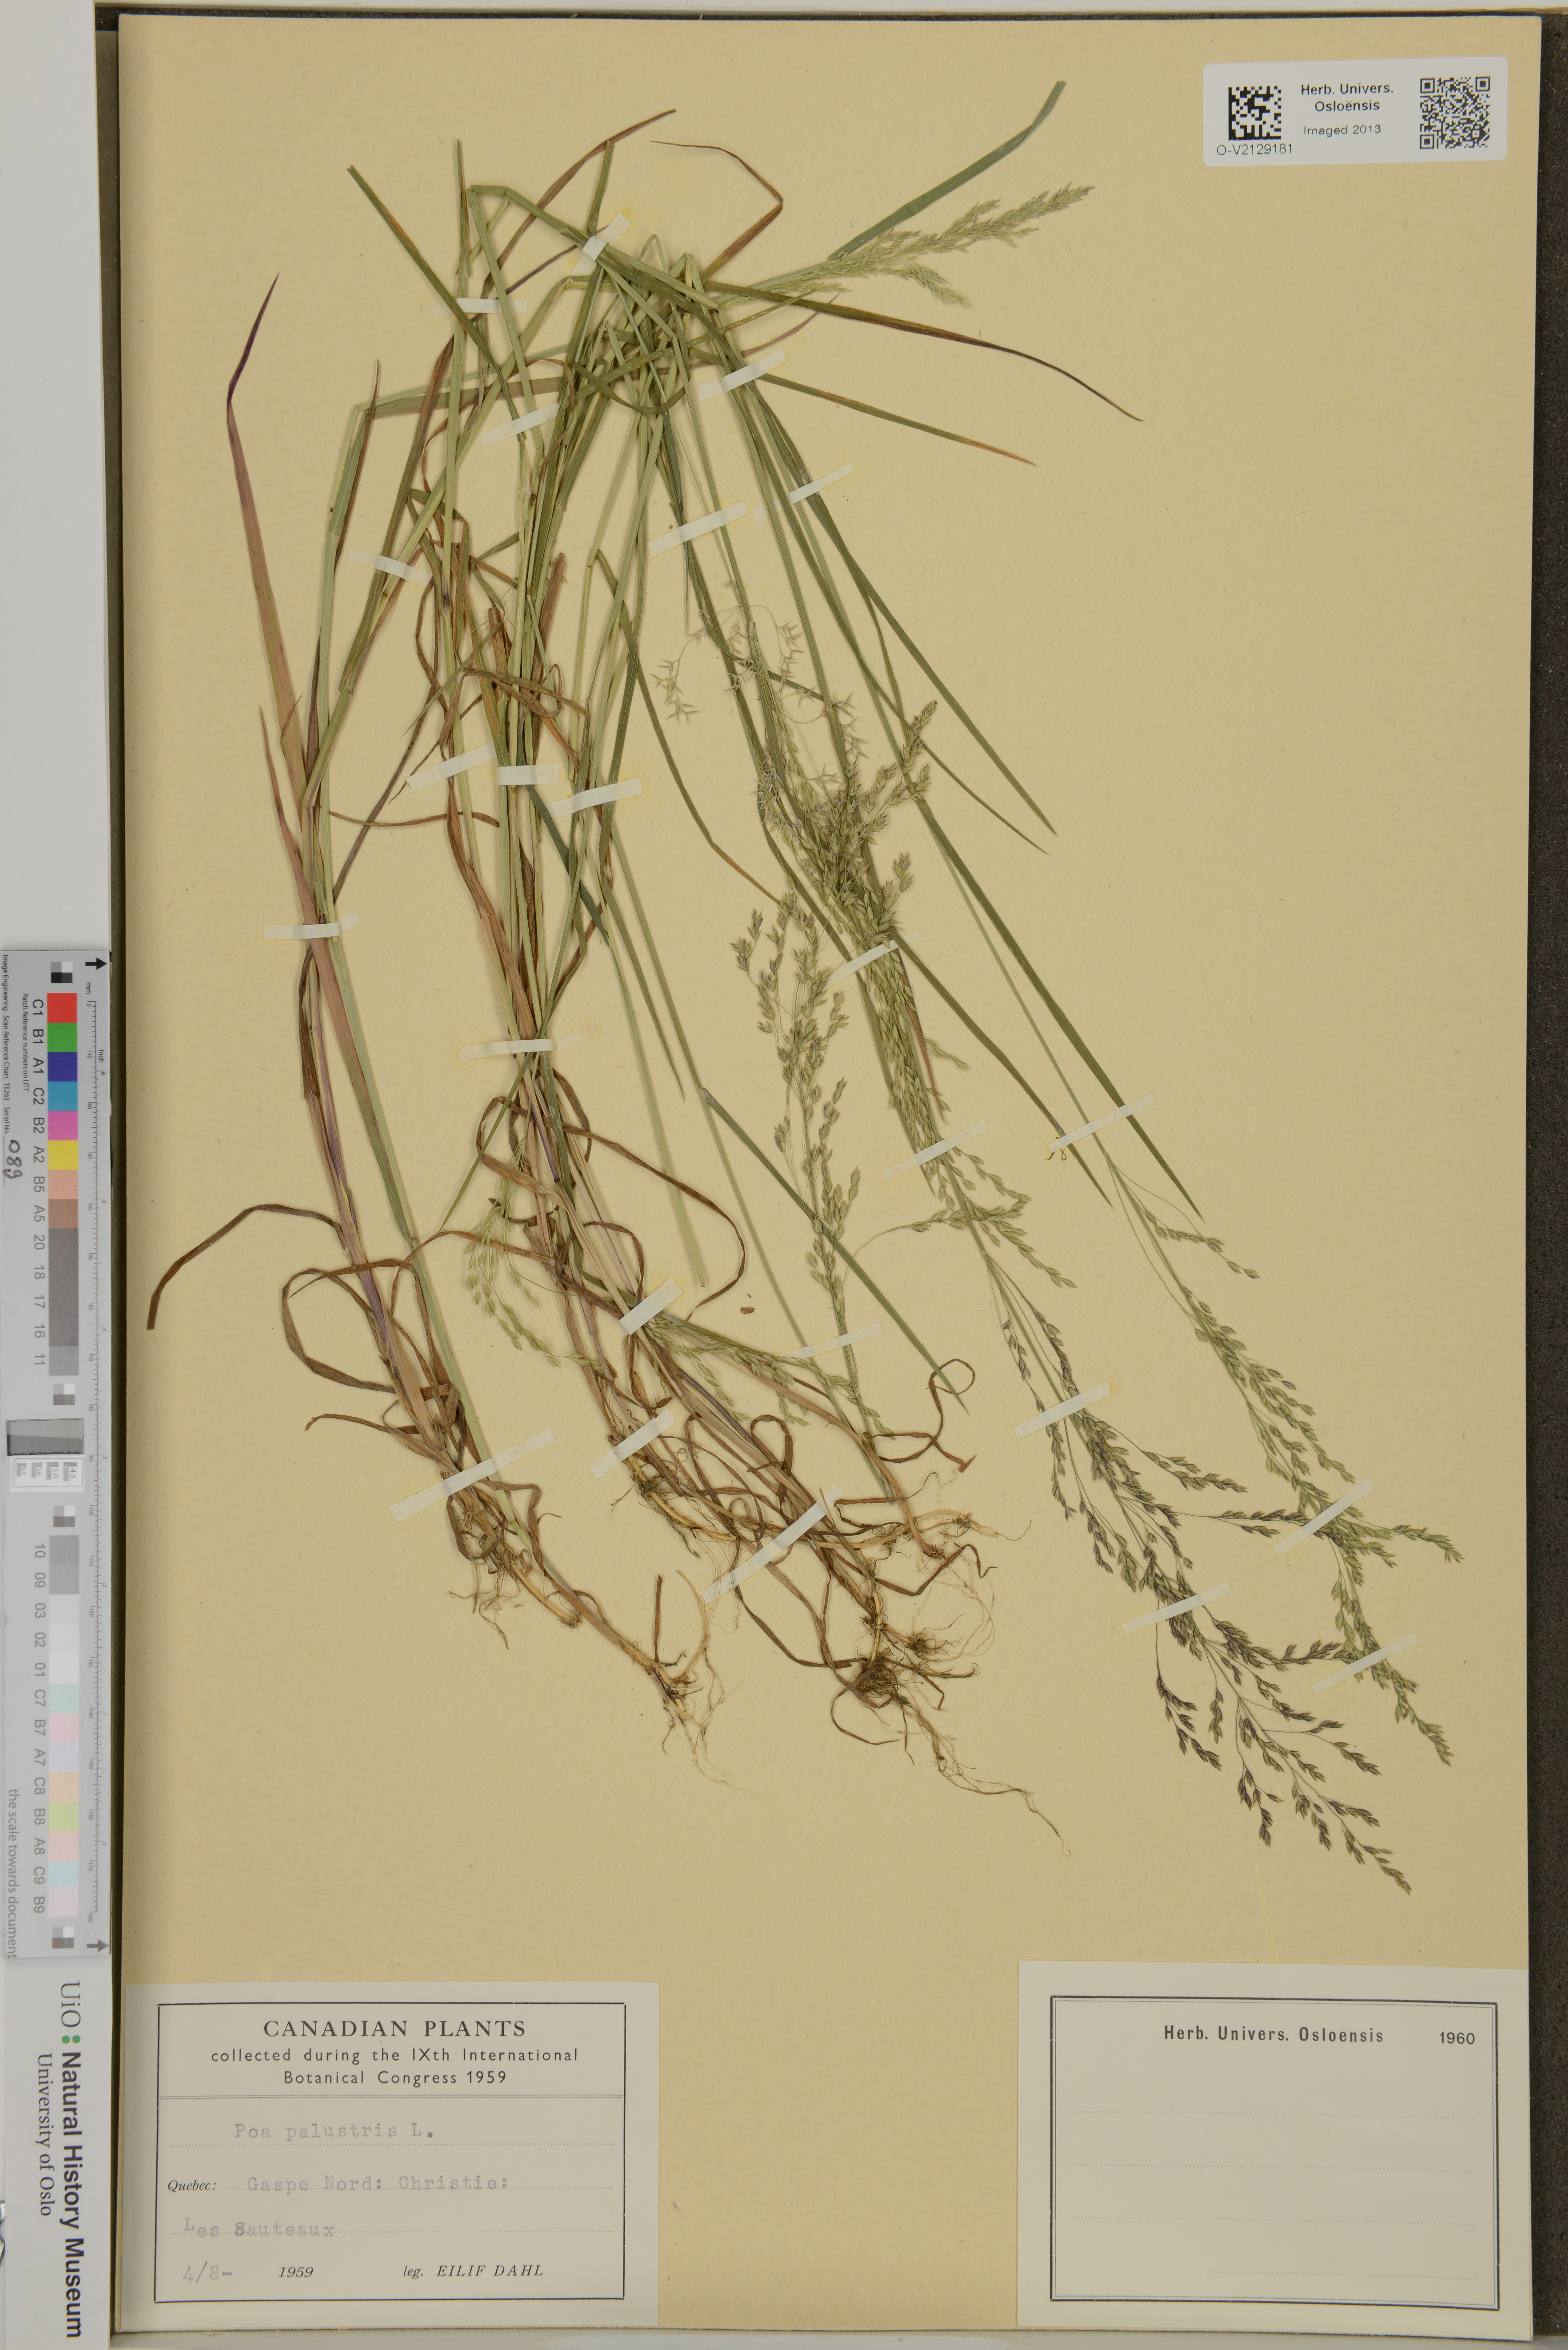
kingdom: Plantae
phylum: Tracheophyta
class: Liliopsida
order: Poales
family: Poaceae
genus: Poa
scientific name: Poa palustris
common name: Swamp meadow-grass
